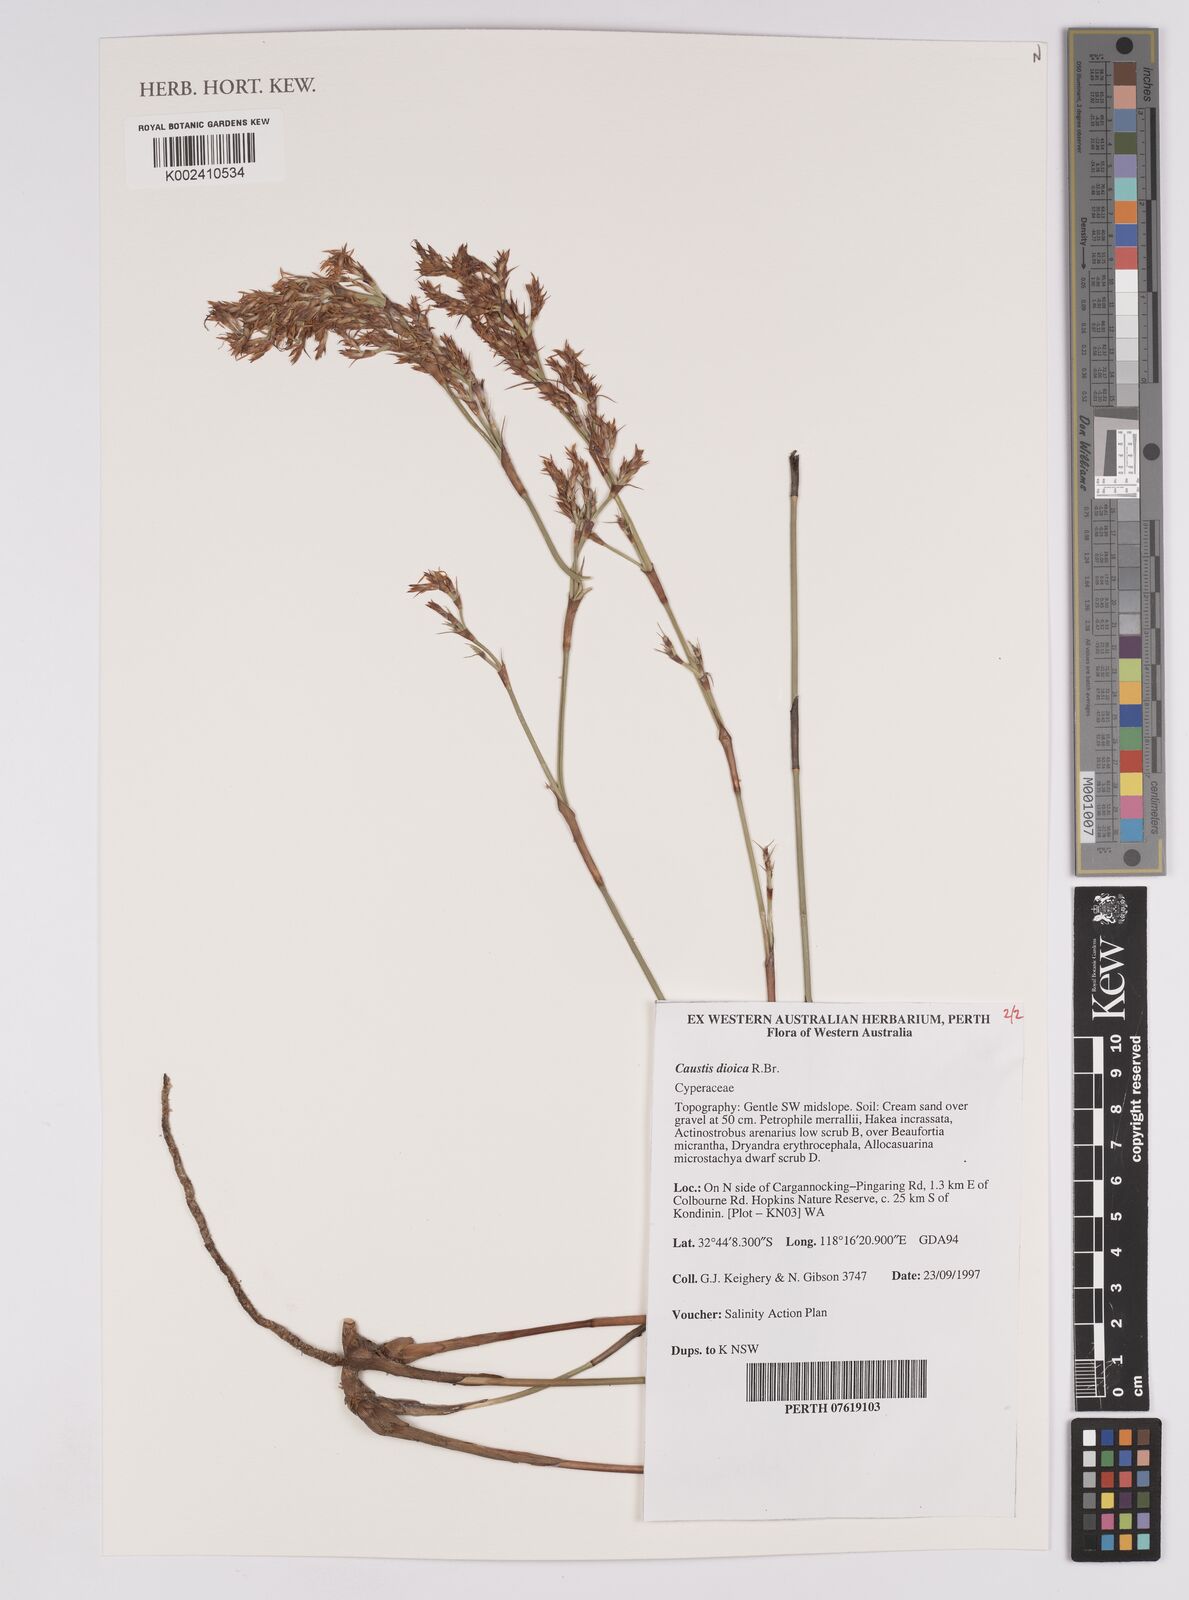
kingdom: Plantae
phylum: Tracheophyta
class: Liliopsida
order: Poales
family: Cyperaceae
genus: Caustis
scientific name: Caustis dioica
